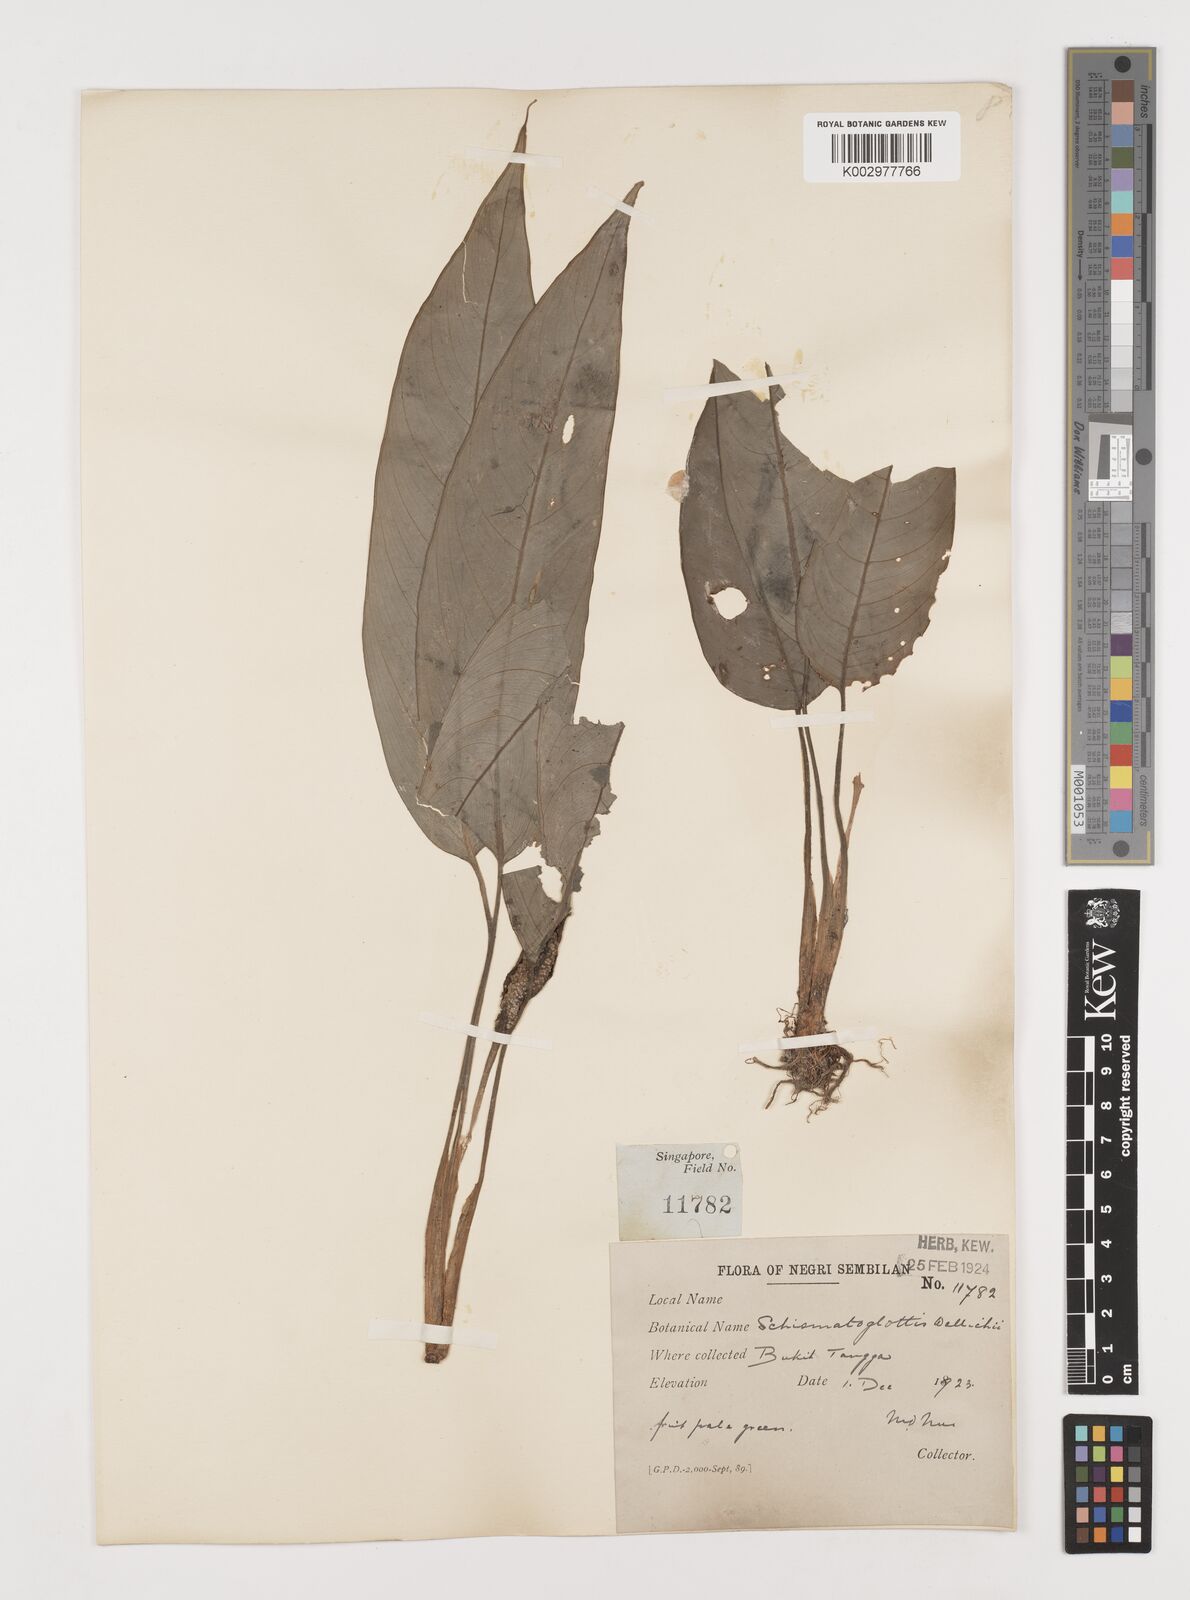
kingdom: Plantae
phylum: Tracheophyta
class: Liliopsida
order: Alismatales
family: Araceae
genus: Schismatoglottis
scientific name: Schismatoglottis wallichii
